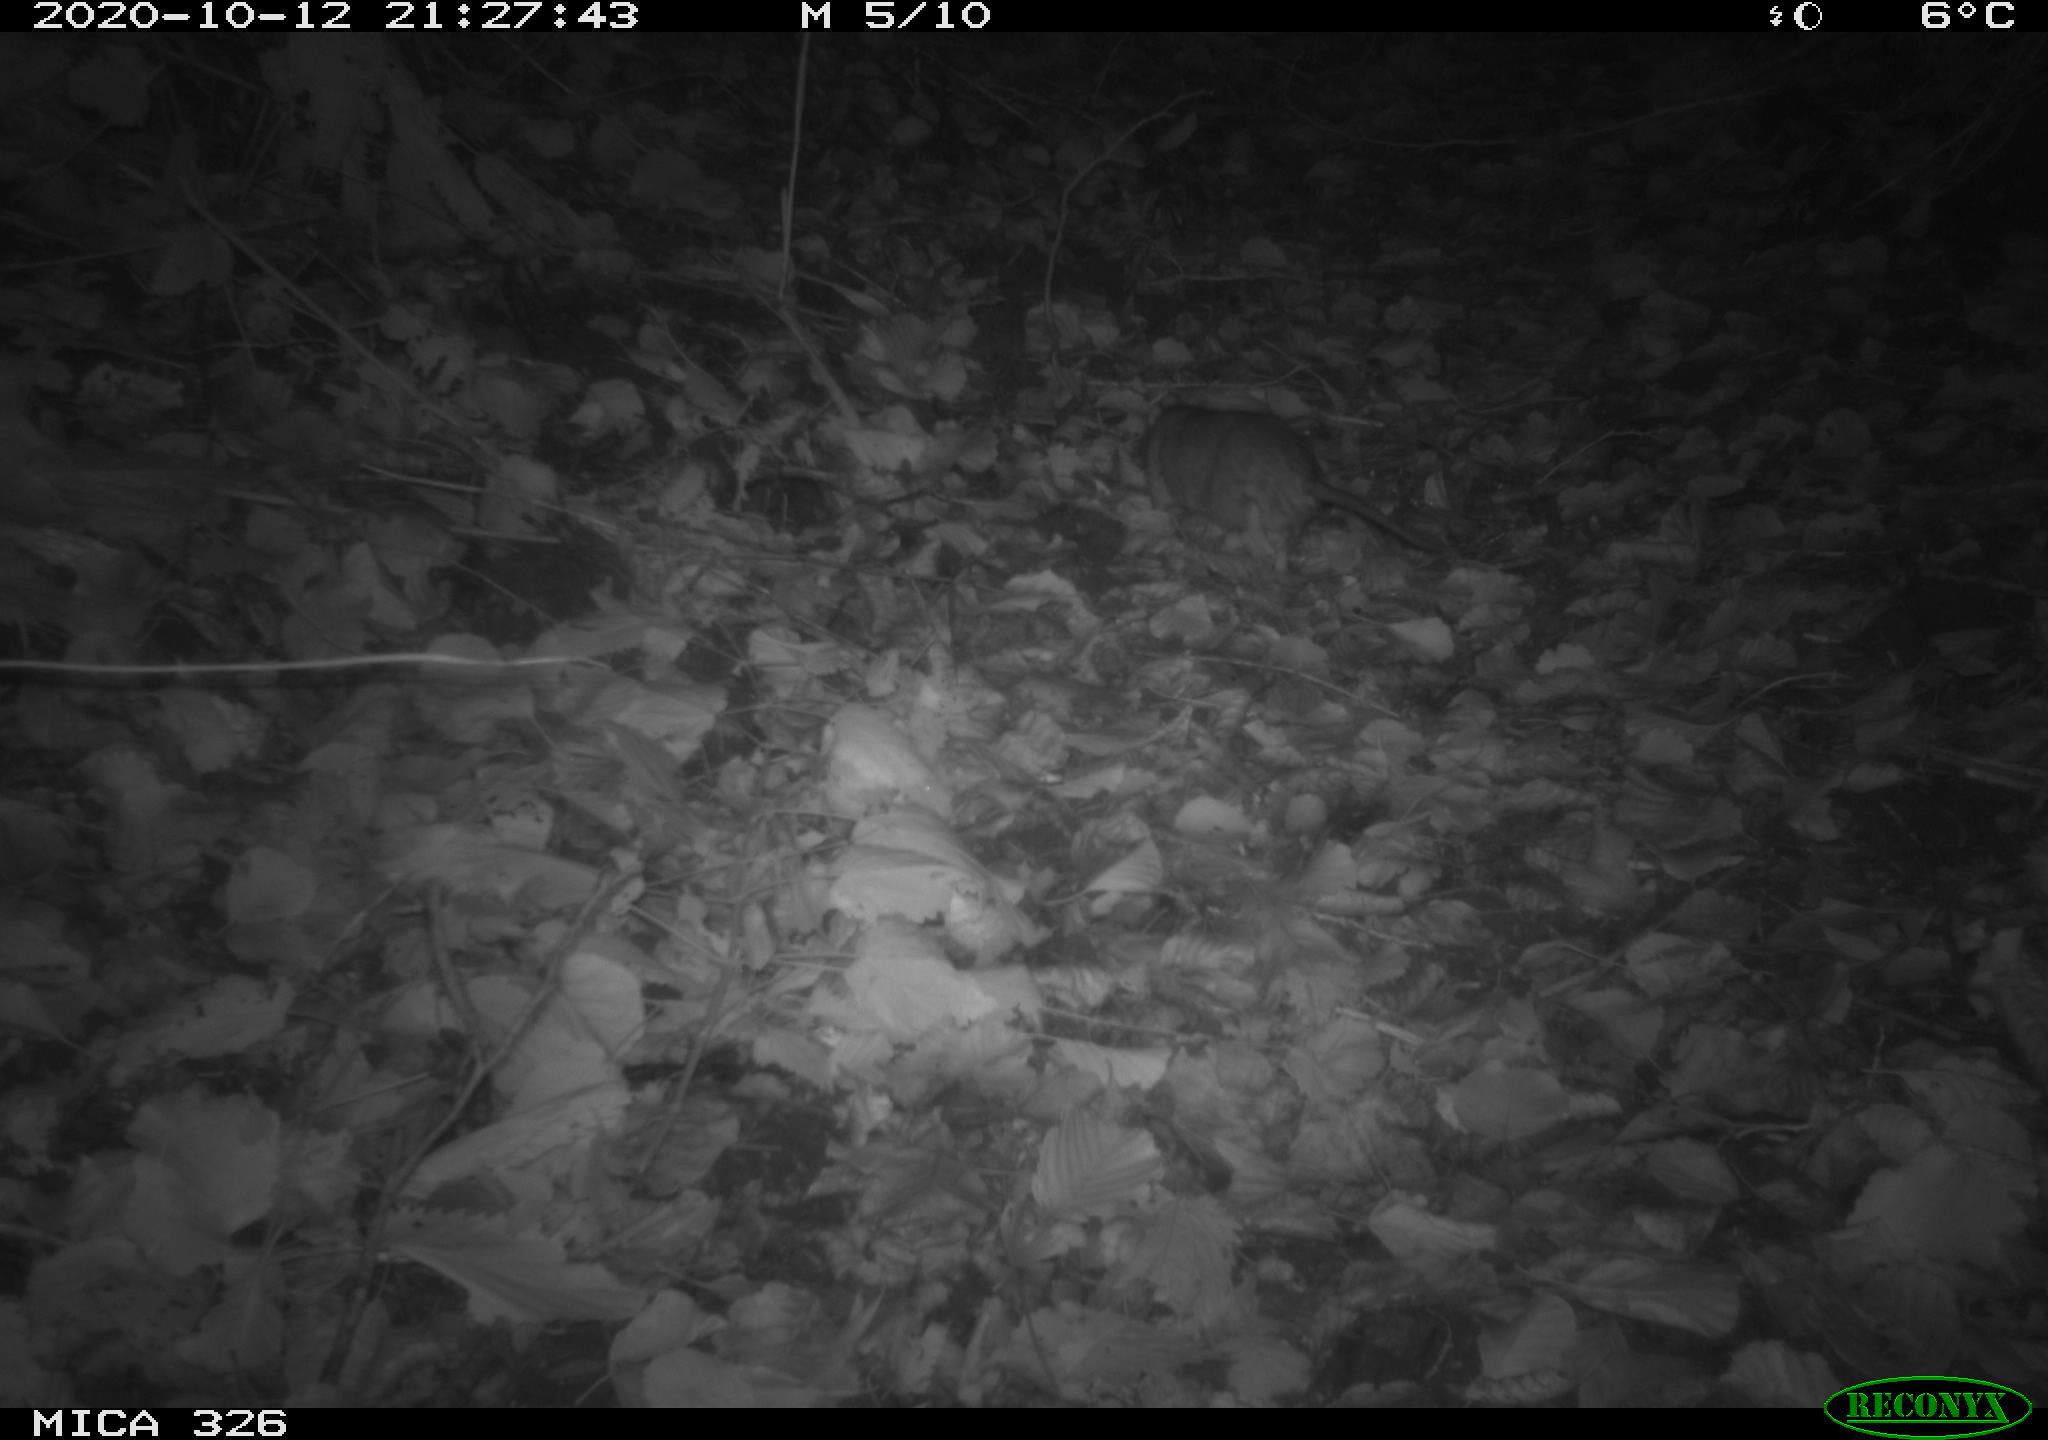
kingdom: Animalia
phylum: Chordata
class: Mammalia
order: Rodentia
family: Muridae
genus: Rattus
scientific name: Rattus norvegicus
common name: Brown rat
